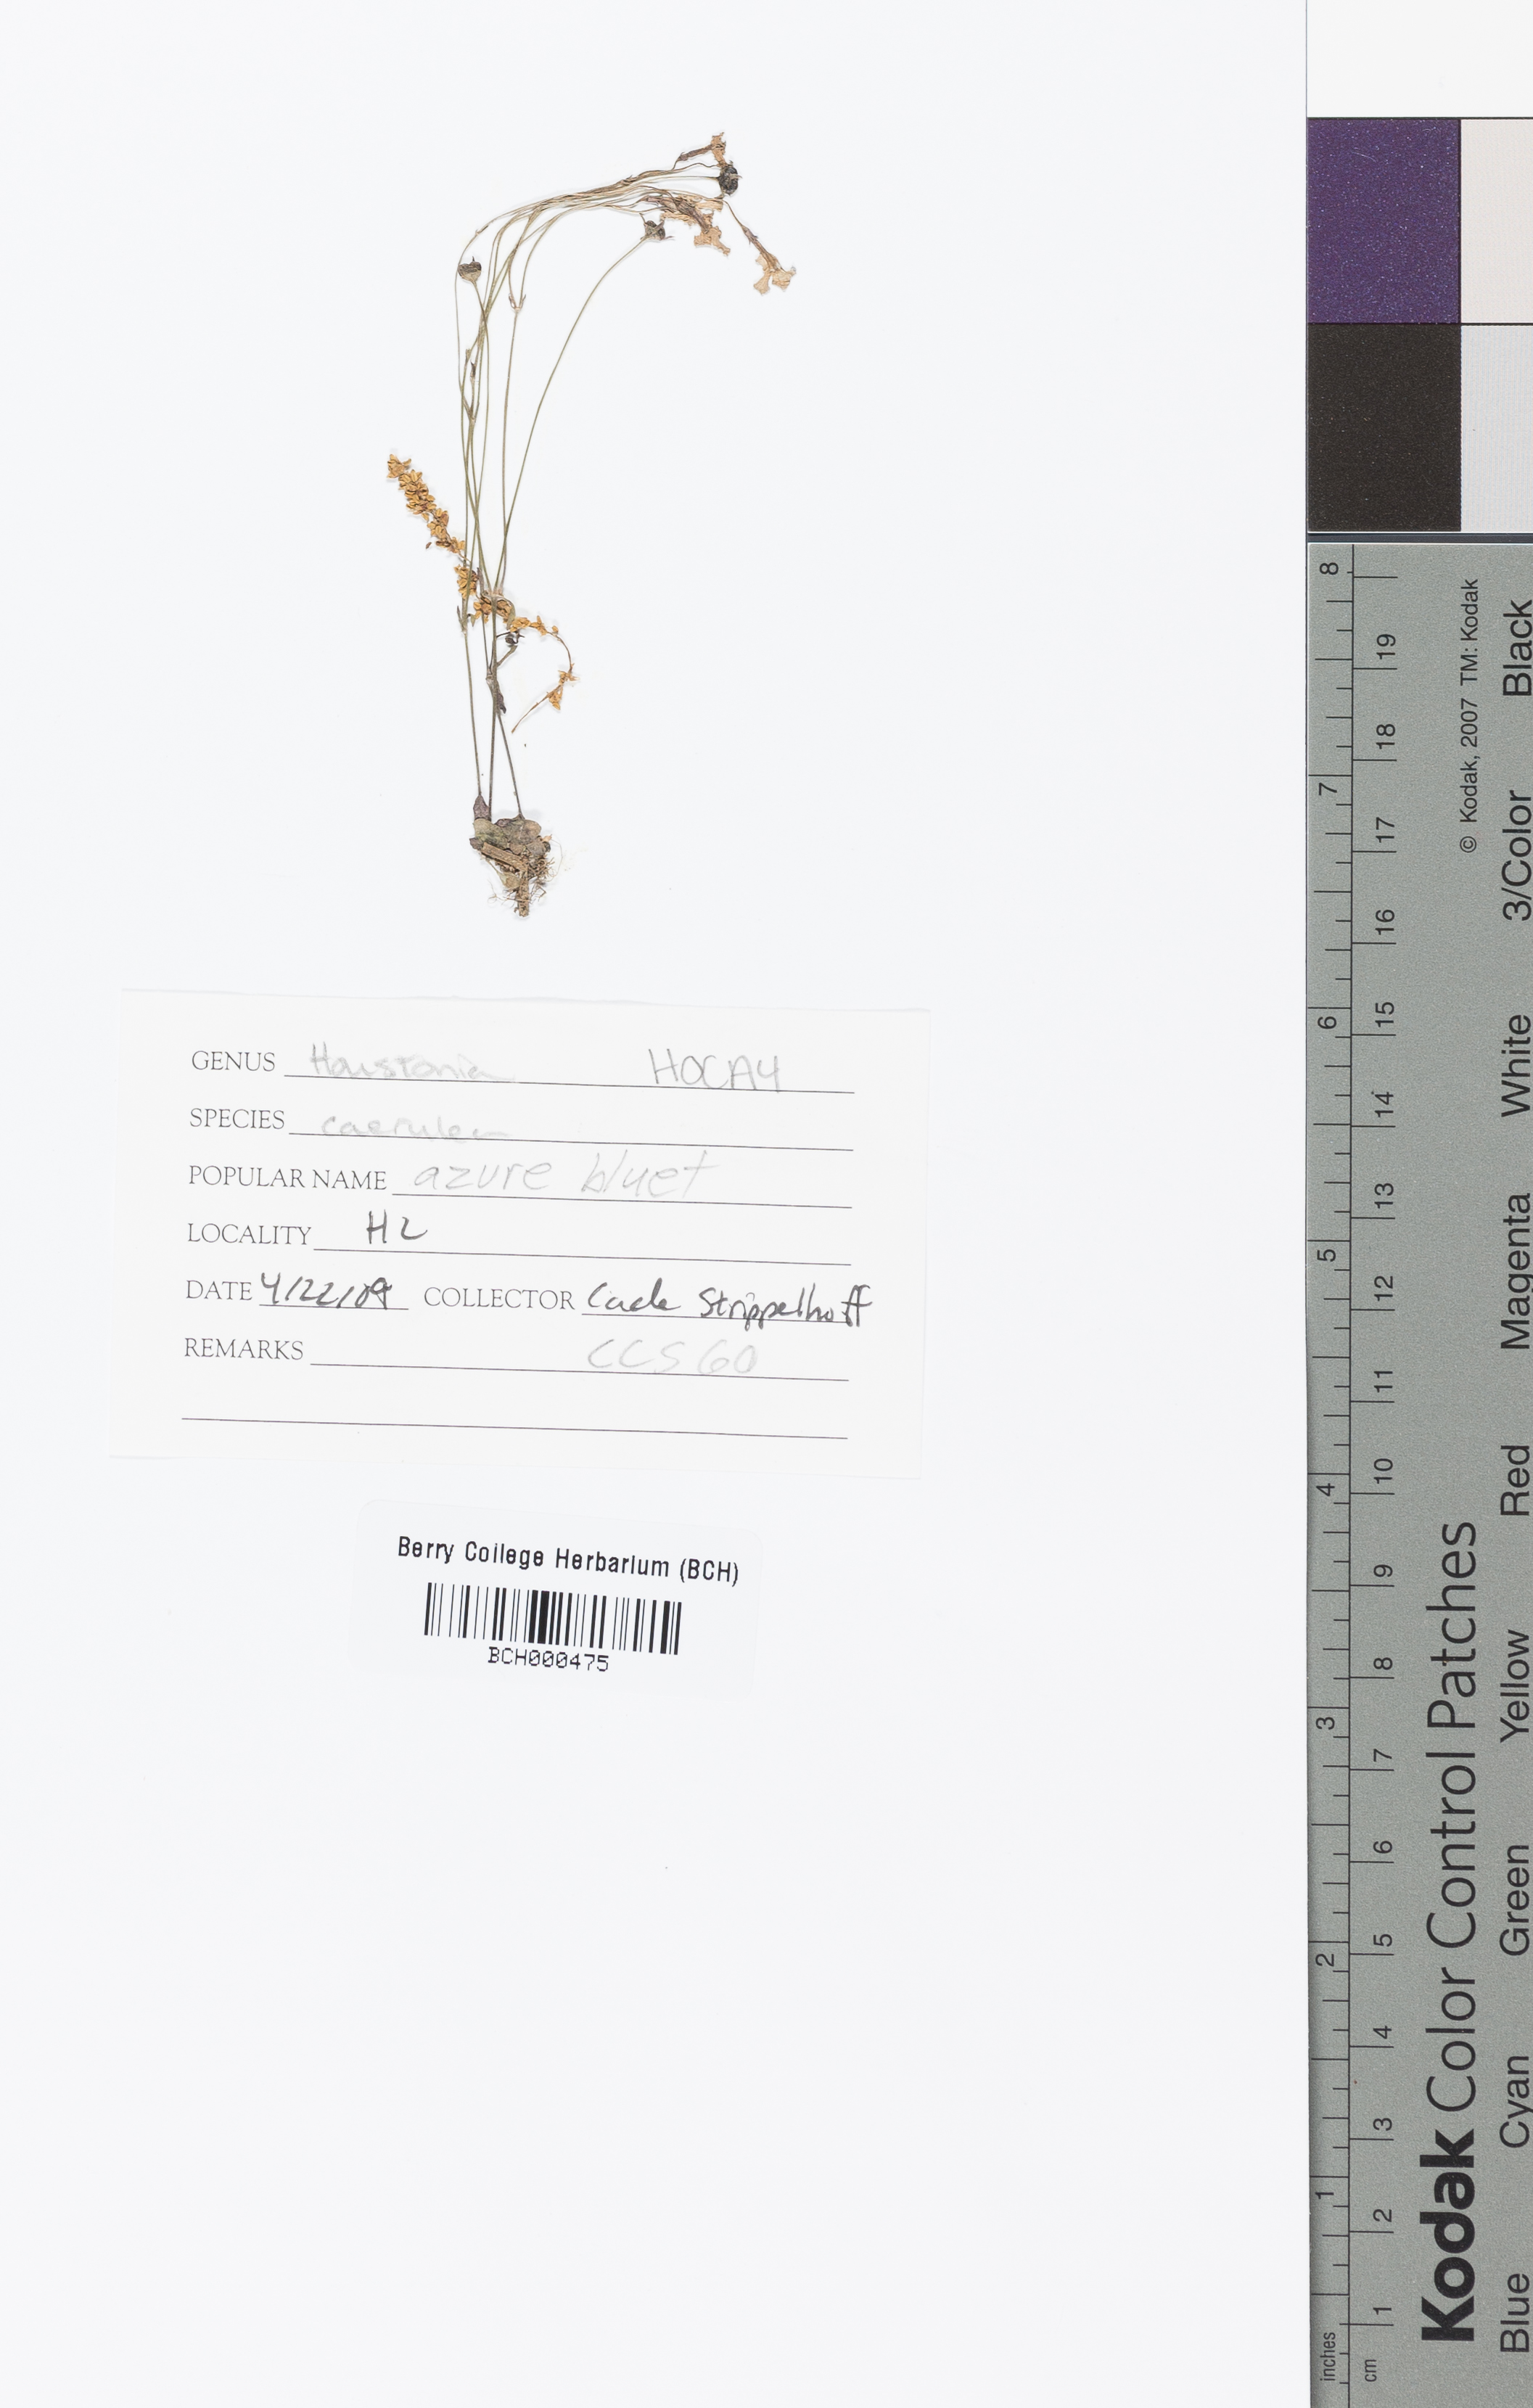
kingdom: Plantae
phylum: Tracheophyta
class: Magnoliopsida
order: Gentianales
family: Rubiaceae
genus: Houstonia
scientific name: Houstonia caerulea
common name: Bluets
